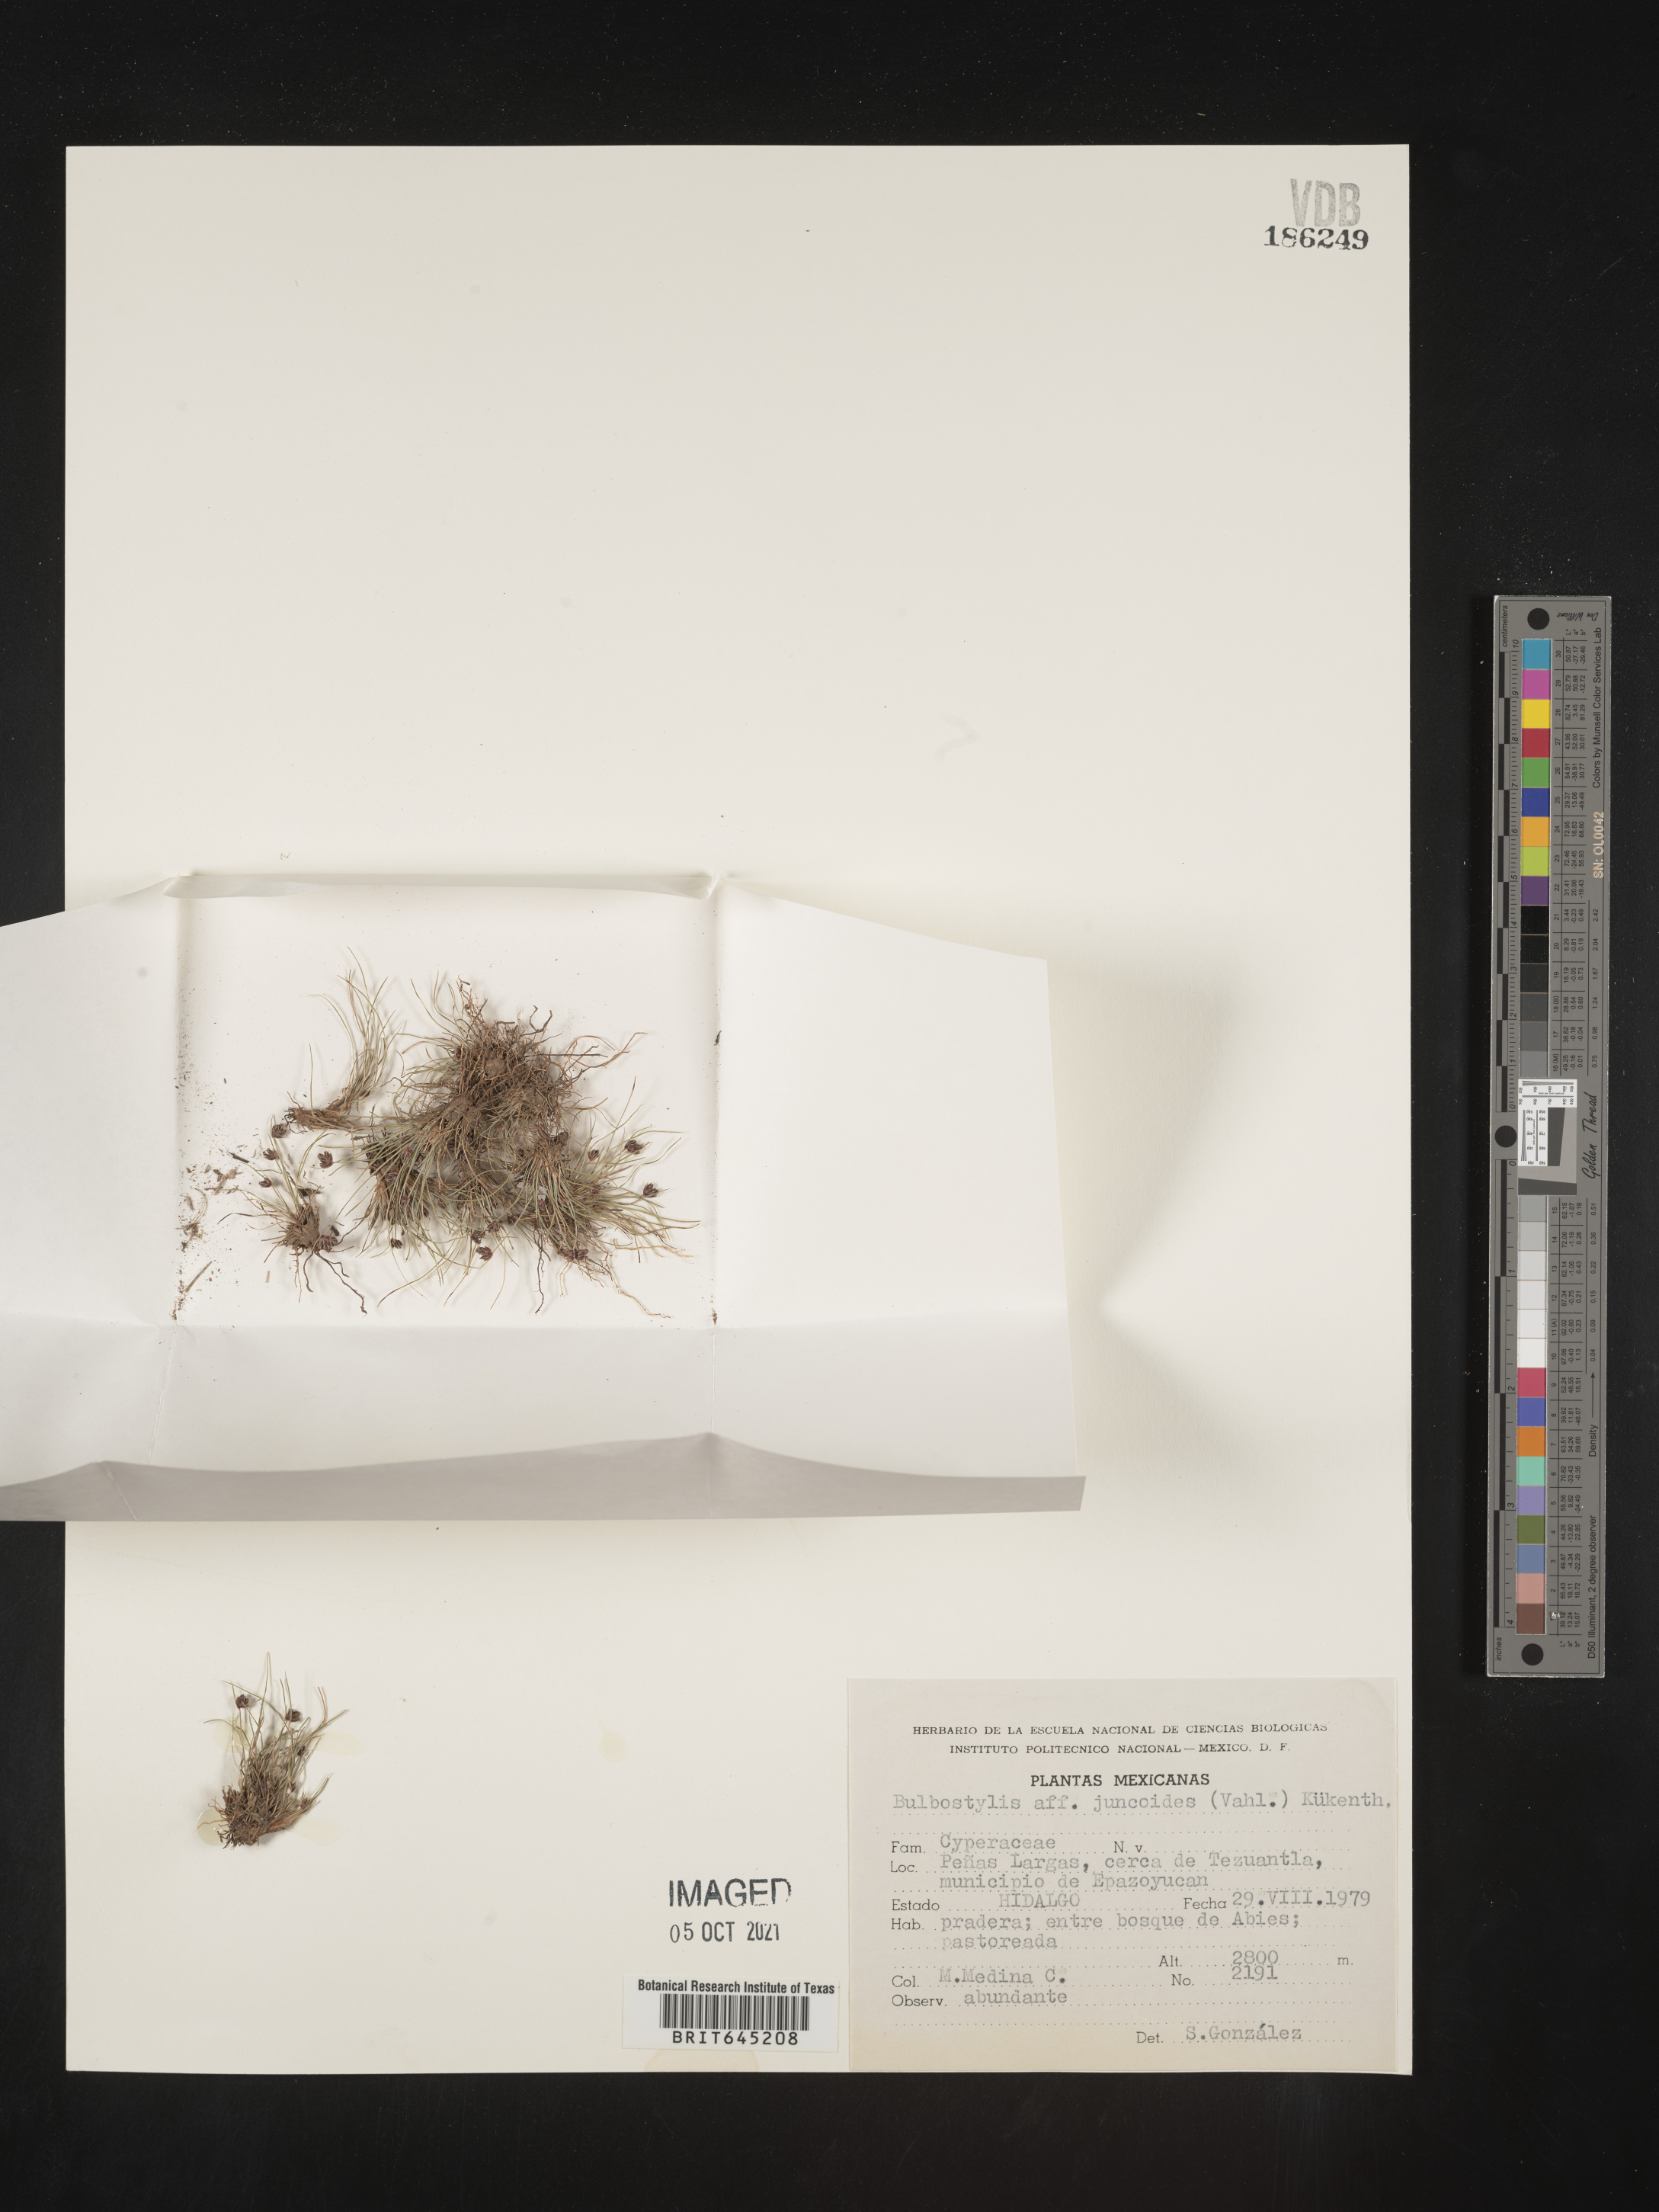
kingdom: Plantae
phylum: Tracheophyta
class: Liliopsida
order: Poales
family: Cyperaceae
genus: Bulbostylis
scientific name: Bulbostylis juncoides
